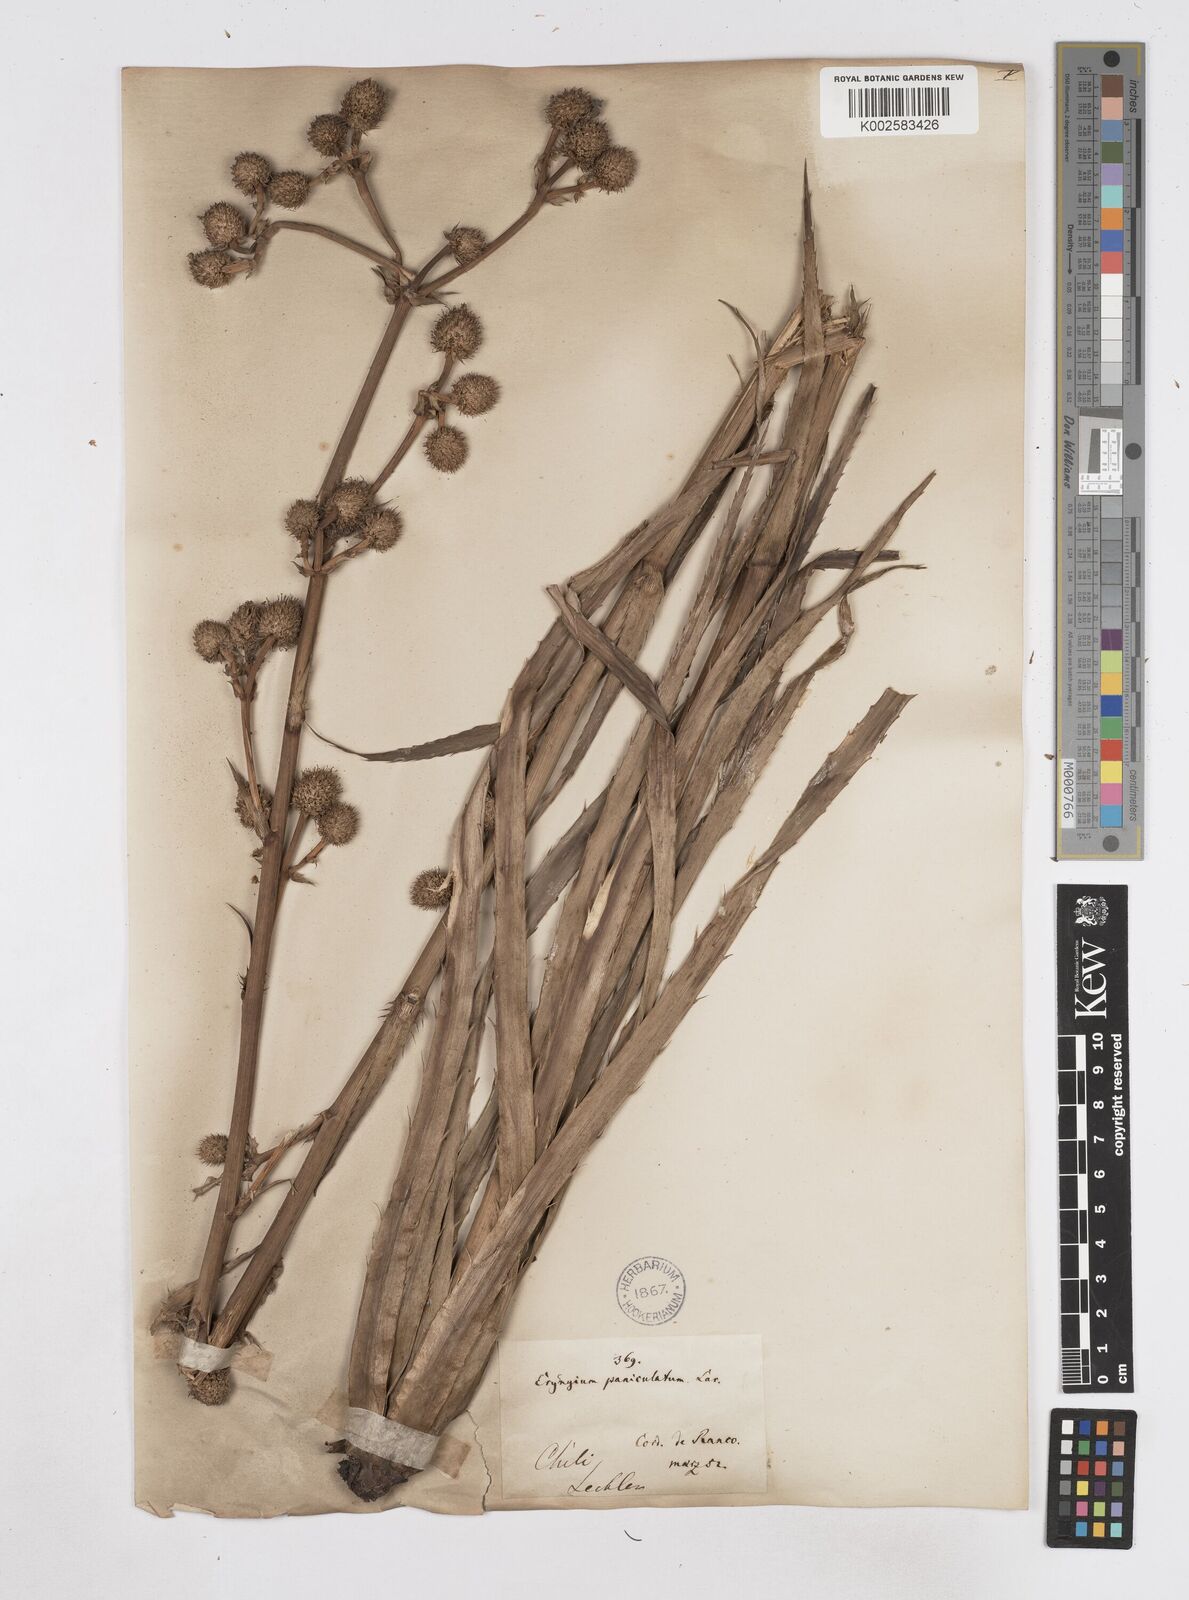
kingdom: Plantae
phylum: Tracheophyta
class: Magnoliopsida
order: Apiales
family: Apiaceae
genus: Eryngium
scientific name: Eryngium humboldtii
